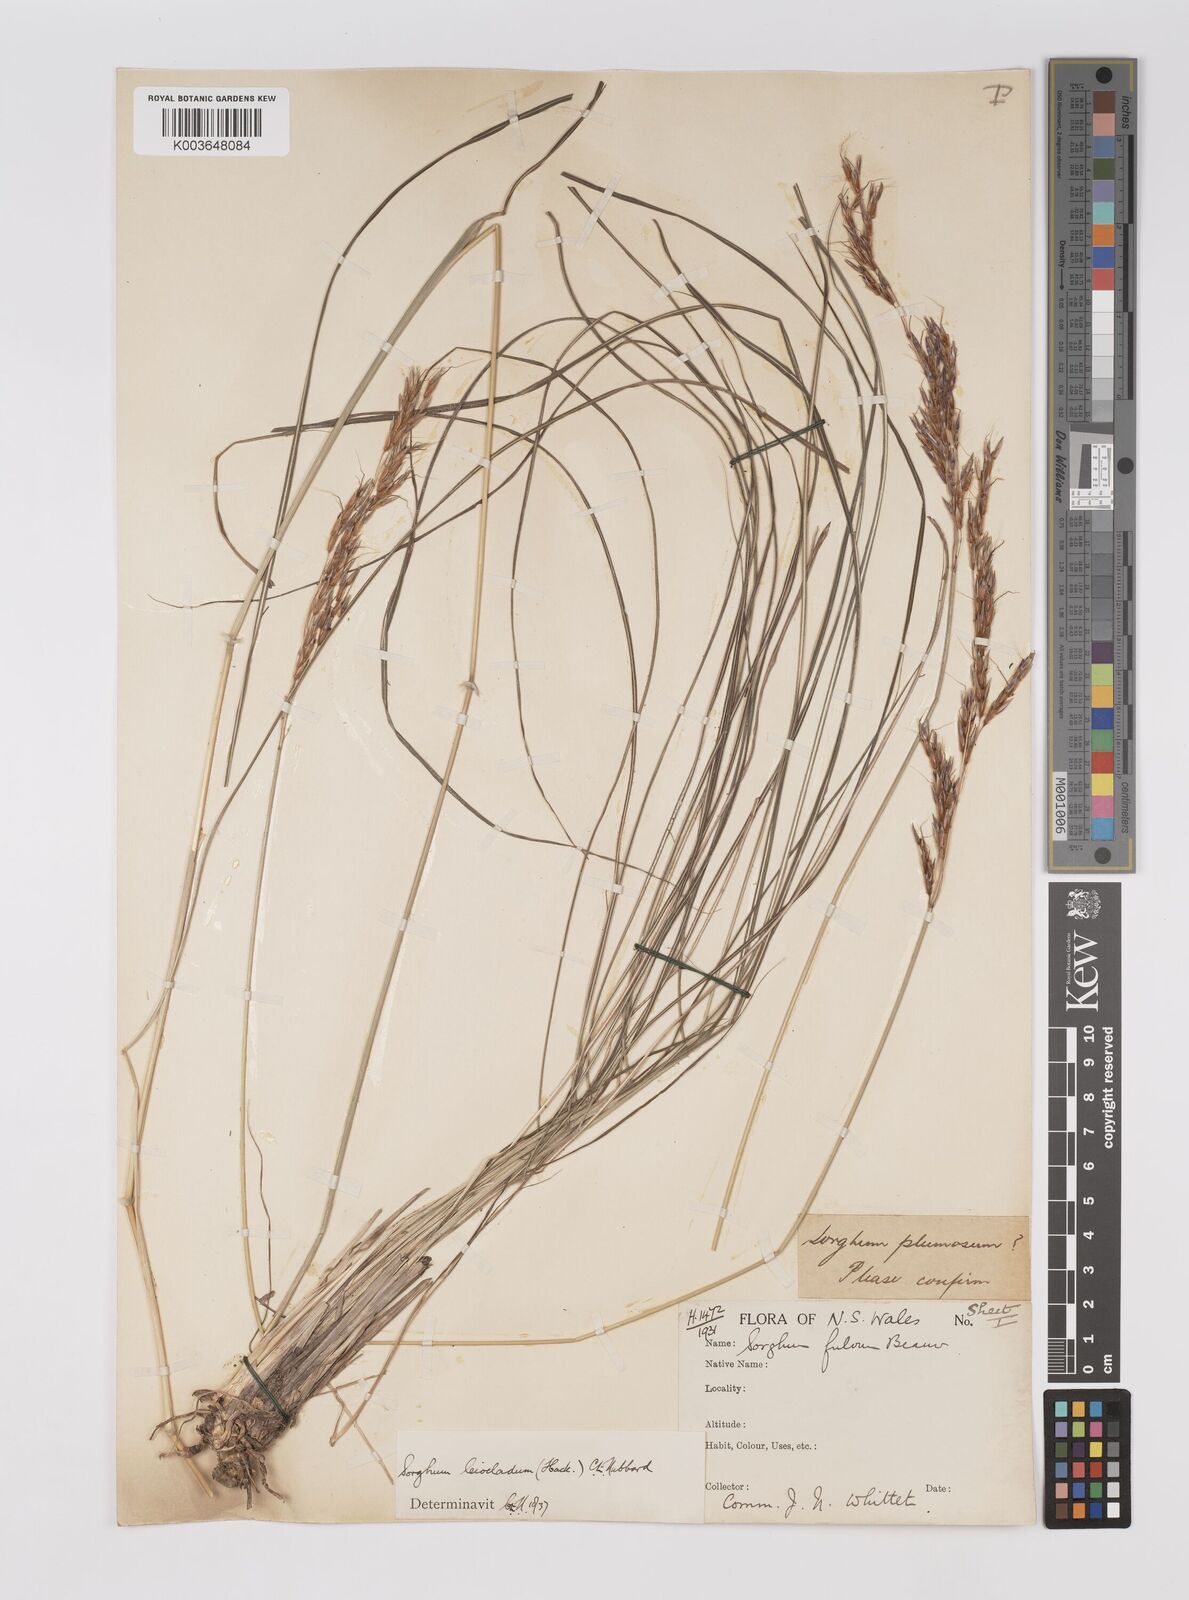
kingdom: Plantae
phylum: Tracheophyta
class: Liliopsida
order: Poales
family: Poaceae
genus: Sarga
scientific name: Sarga leioclada
